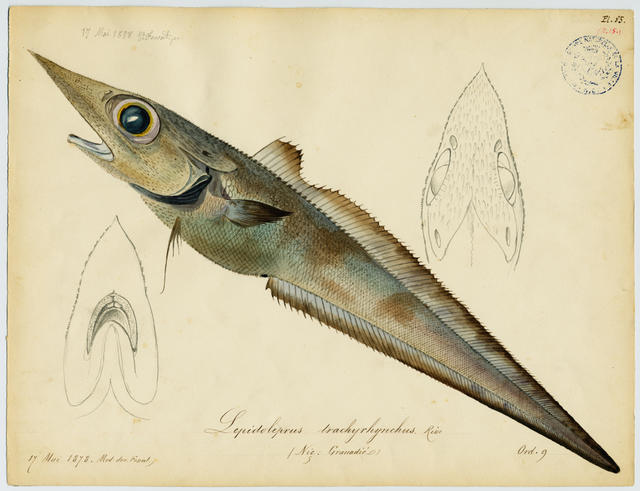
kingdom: Animalia
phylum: Chordata
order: Gadiformes
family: Macrouridae
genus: Trachyrincus
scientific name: Trachyrincus scabrus
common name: Roughnosed rattail
